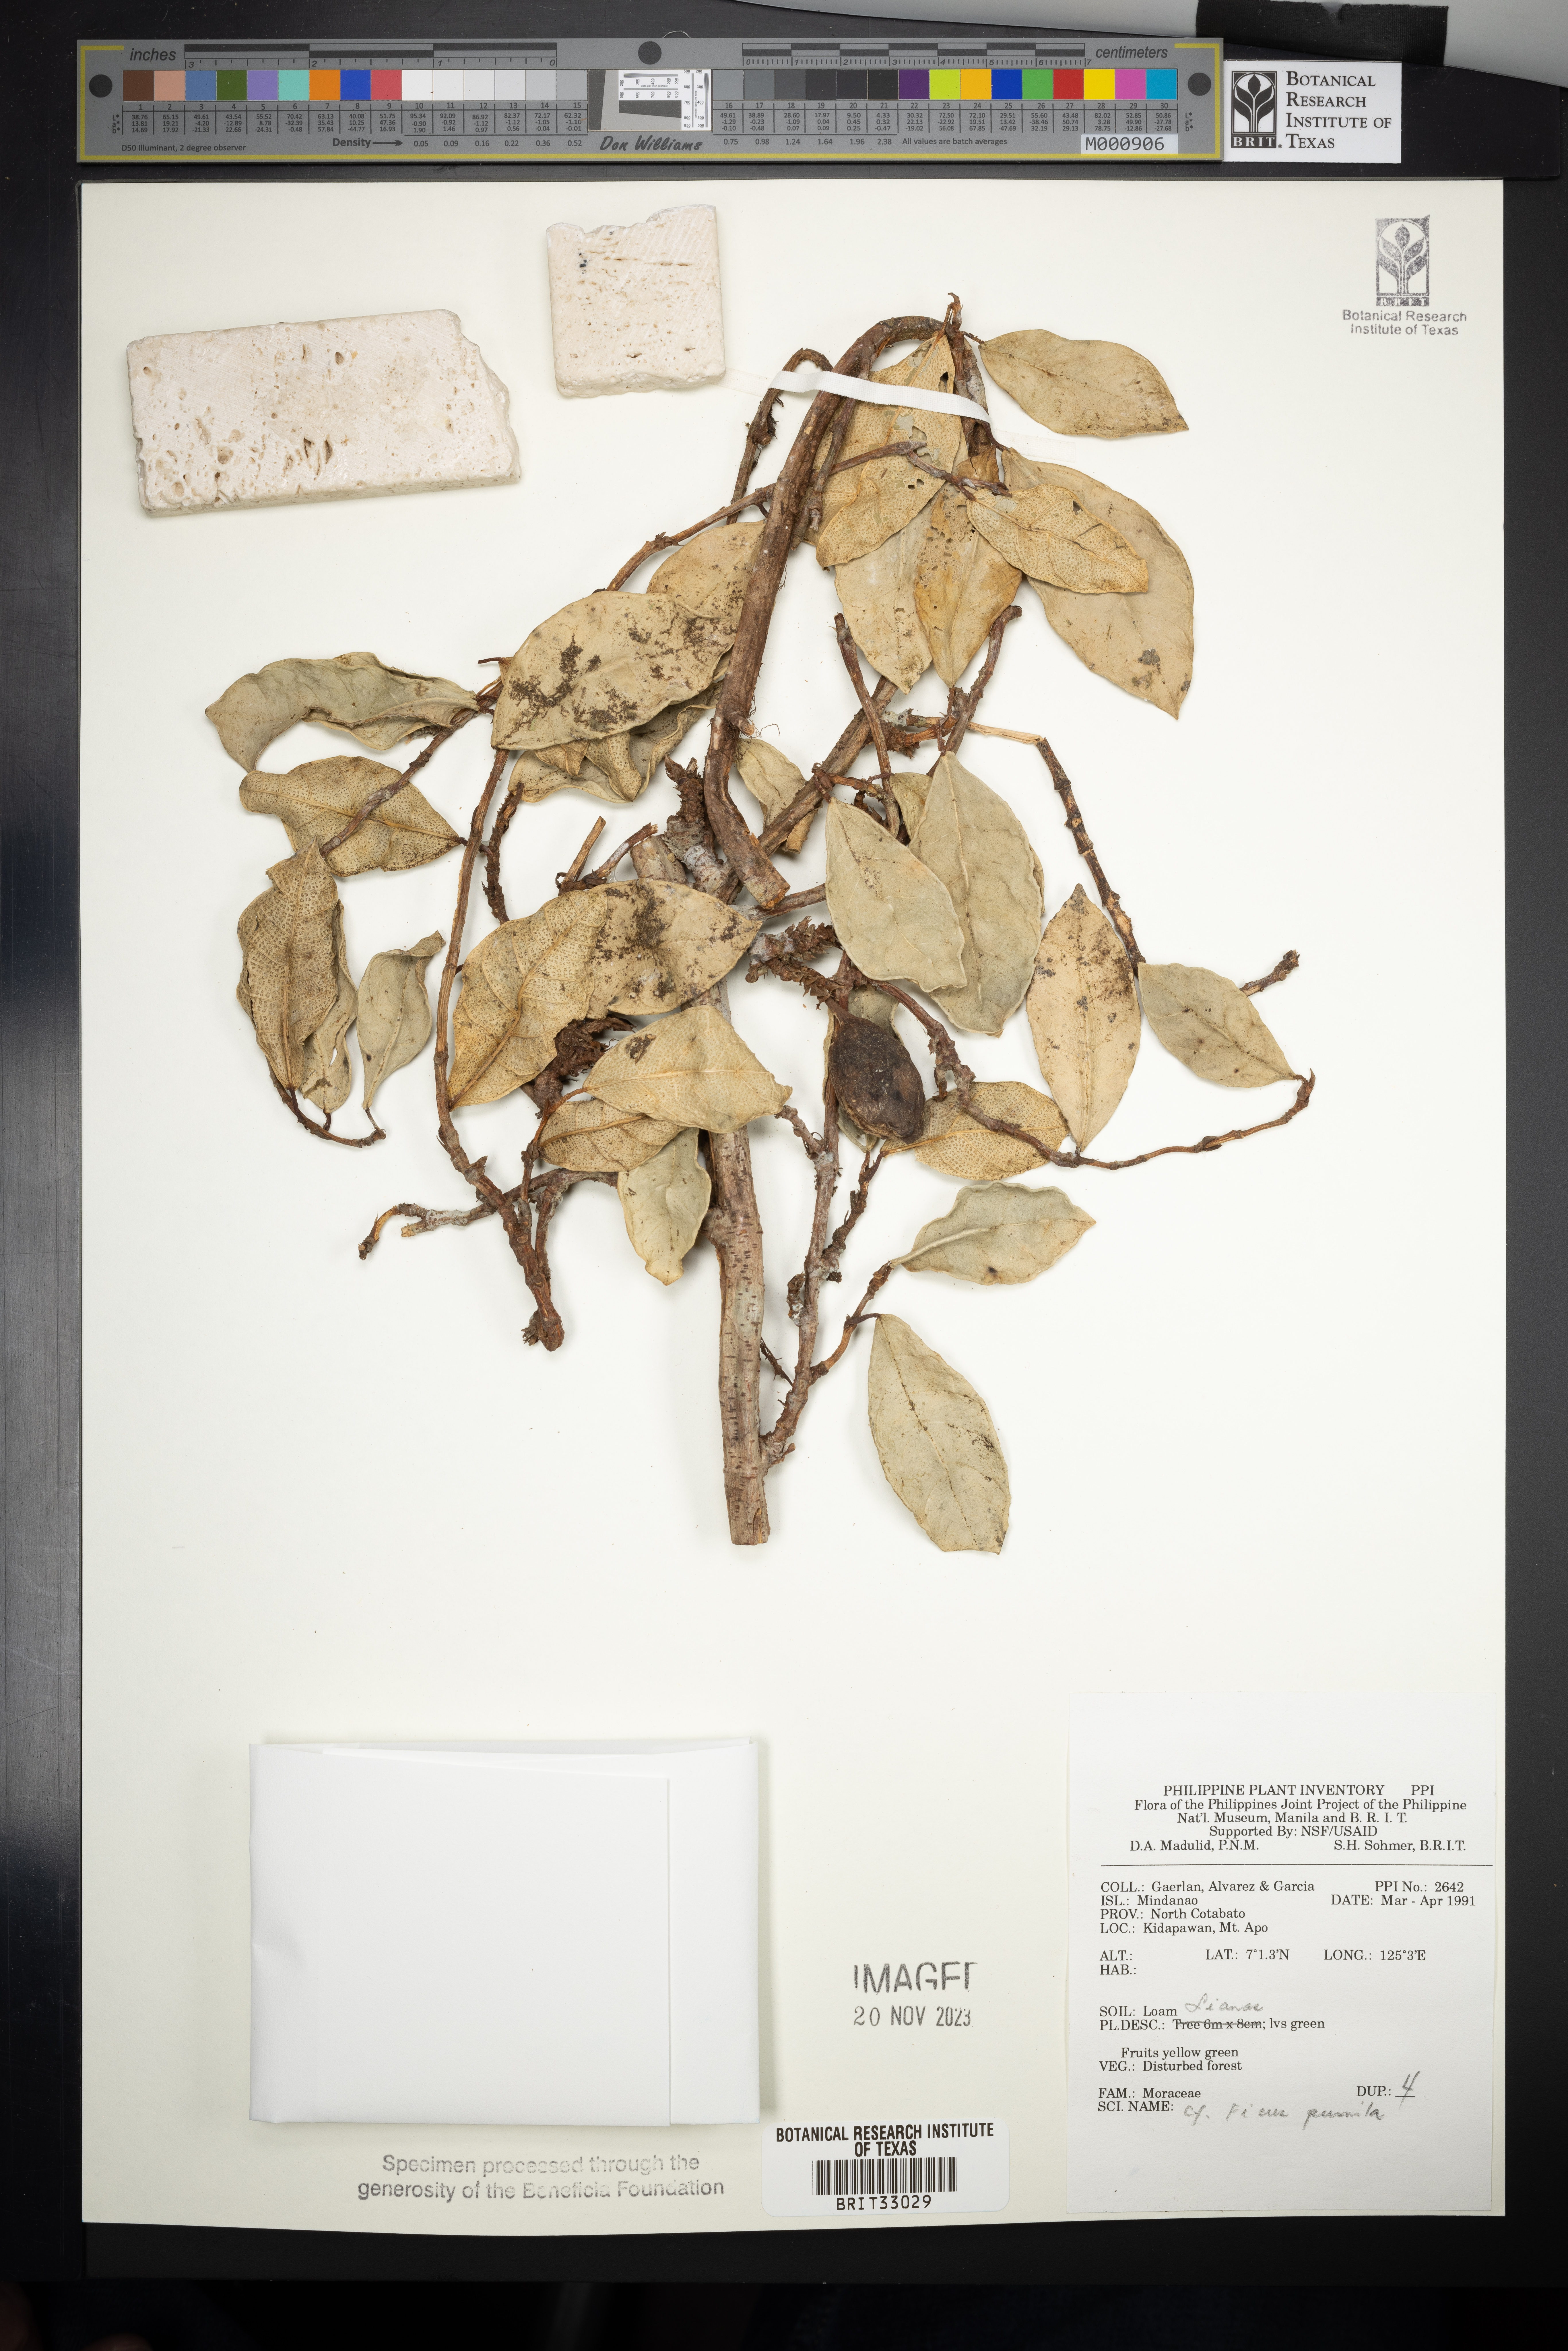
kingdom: Plantae
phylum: Tracheophyta
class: Magnoliopsida
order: Rosales
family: Moraceae
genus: Ficus
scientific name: Ficus pumila
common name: Climbingfig
